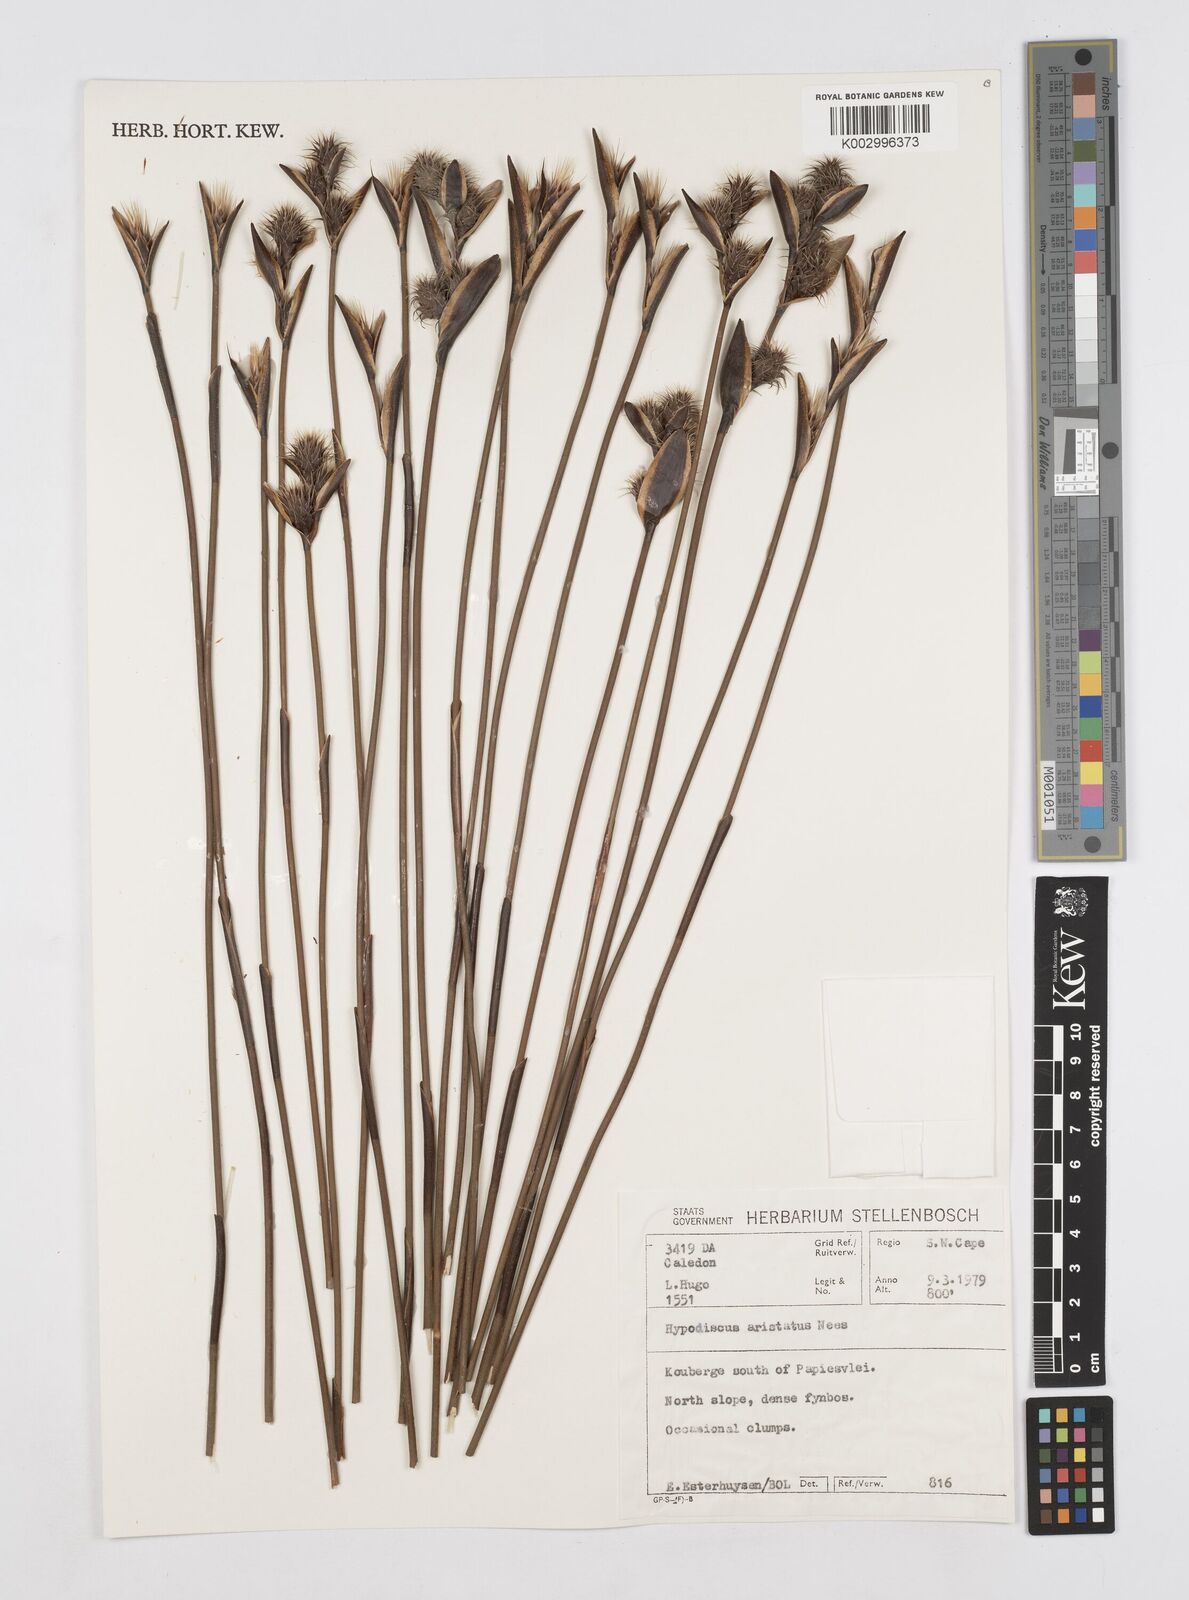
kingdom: Plantae
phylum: Tracheophyta
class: Liliopsida
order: Poales
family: Restionaceae
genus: Hypodiscus
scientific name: Hypodiscus aristatus
